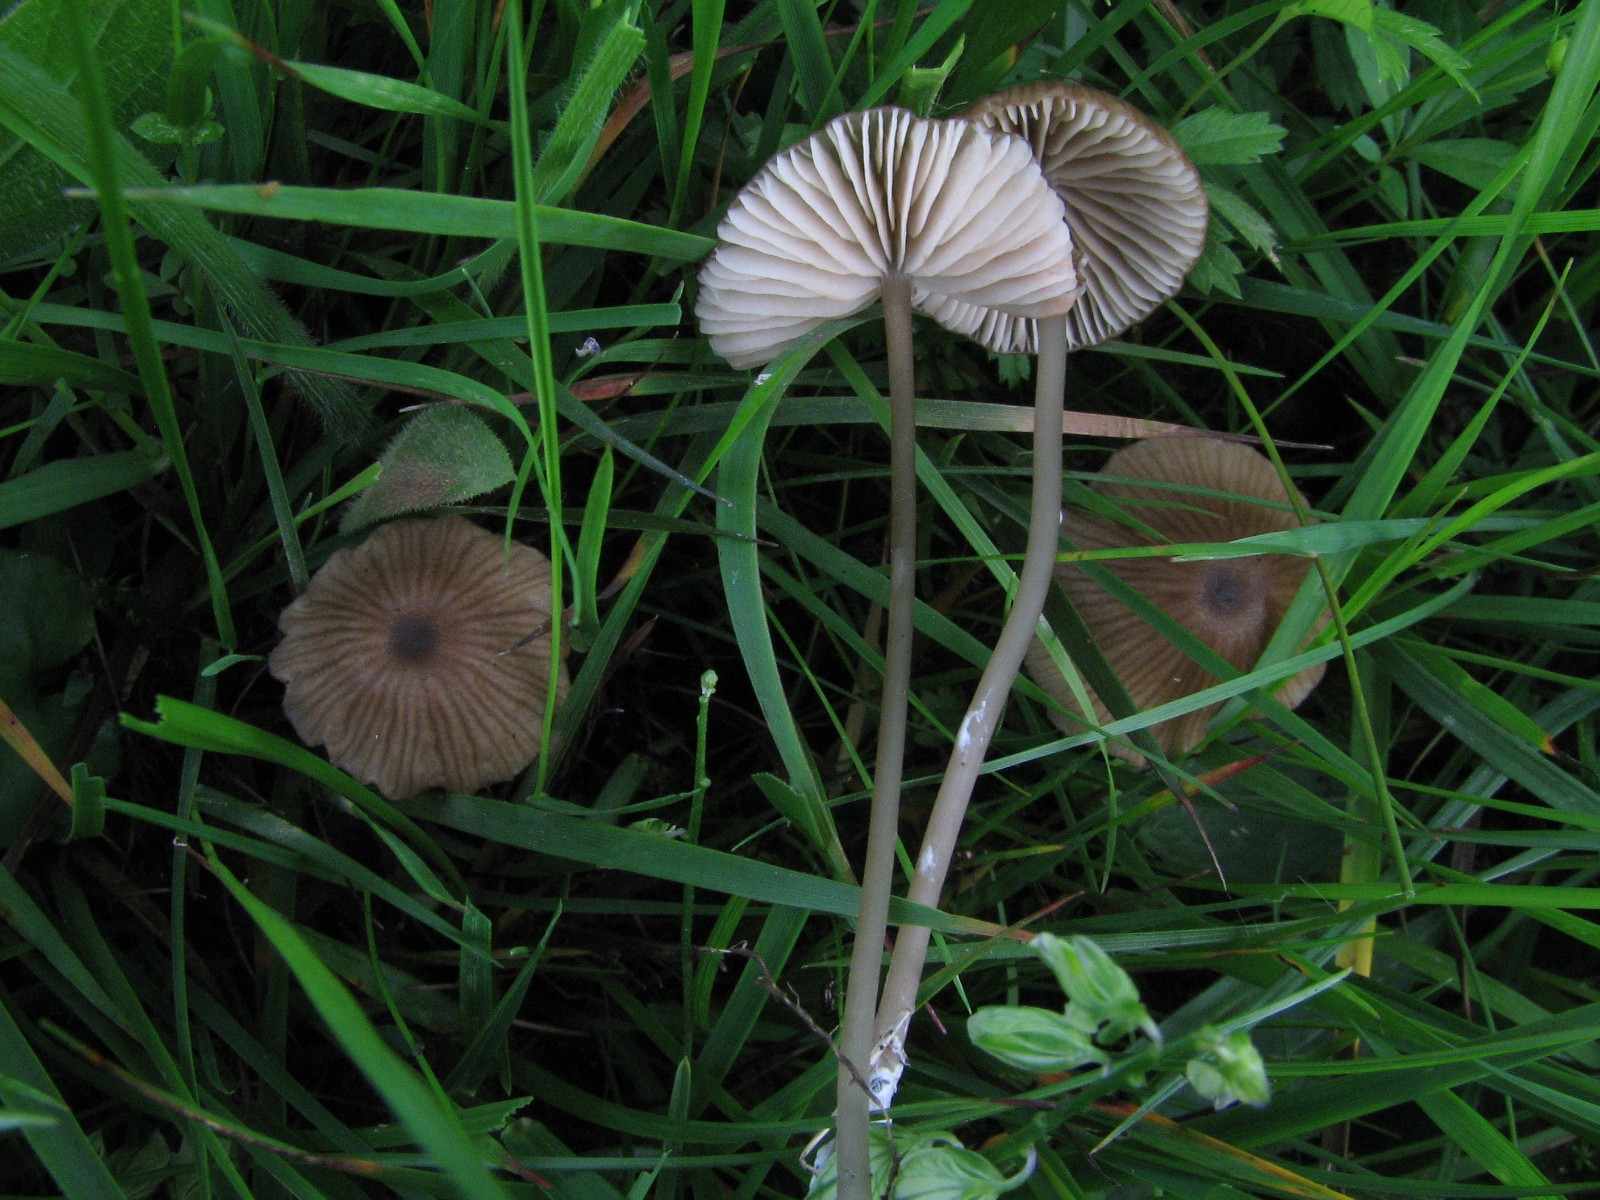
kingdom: Fungi
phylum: Basidiomycota
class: Agaricomycetes
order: Agaricales
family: Entolomataceae
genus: Entoloma
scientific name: Entoloma longistriatum
